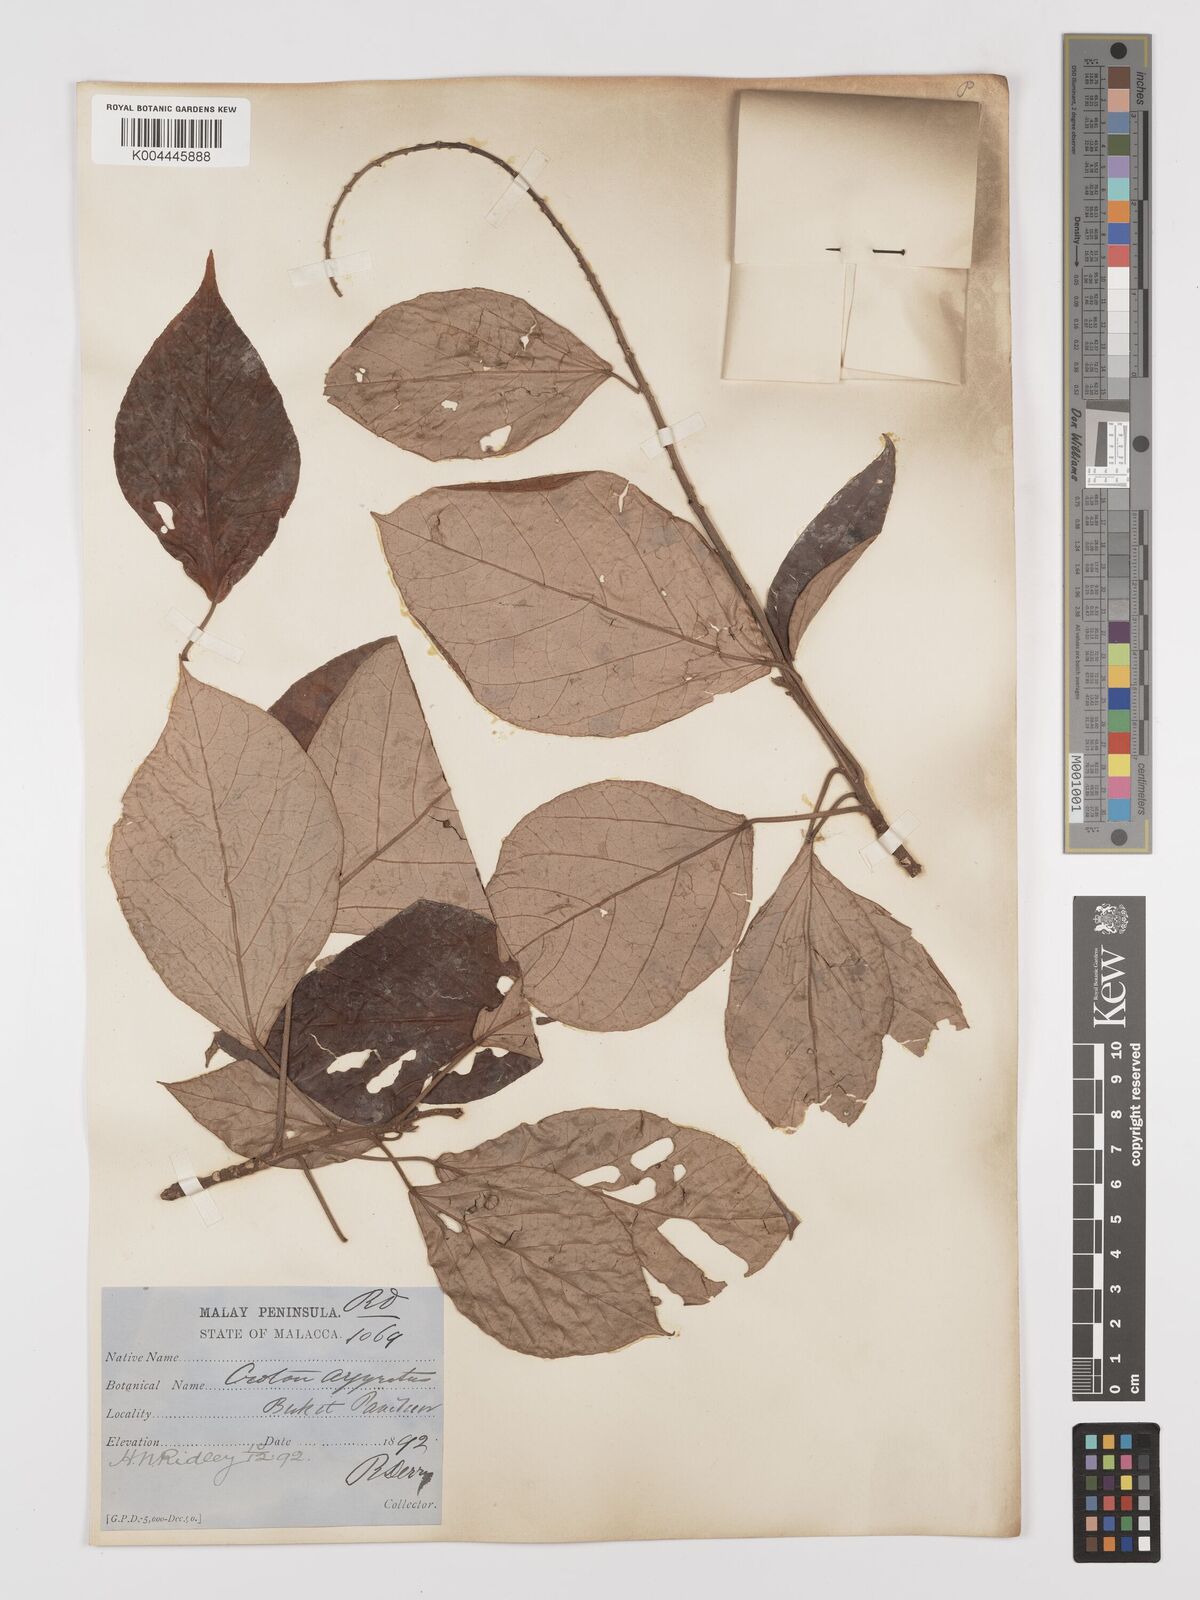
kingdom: Plantae
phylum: Tracheophyta
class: Magnoliopsida
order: Malpighiales
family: Euphorbiaceae
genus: Croton
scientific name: Croton argyratus
